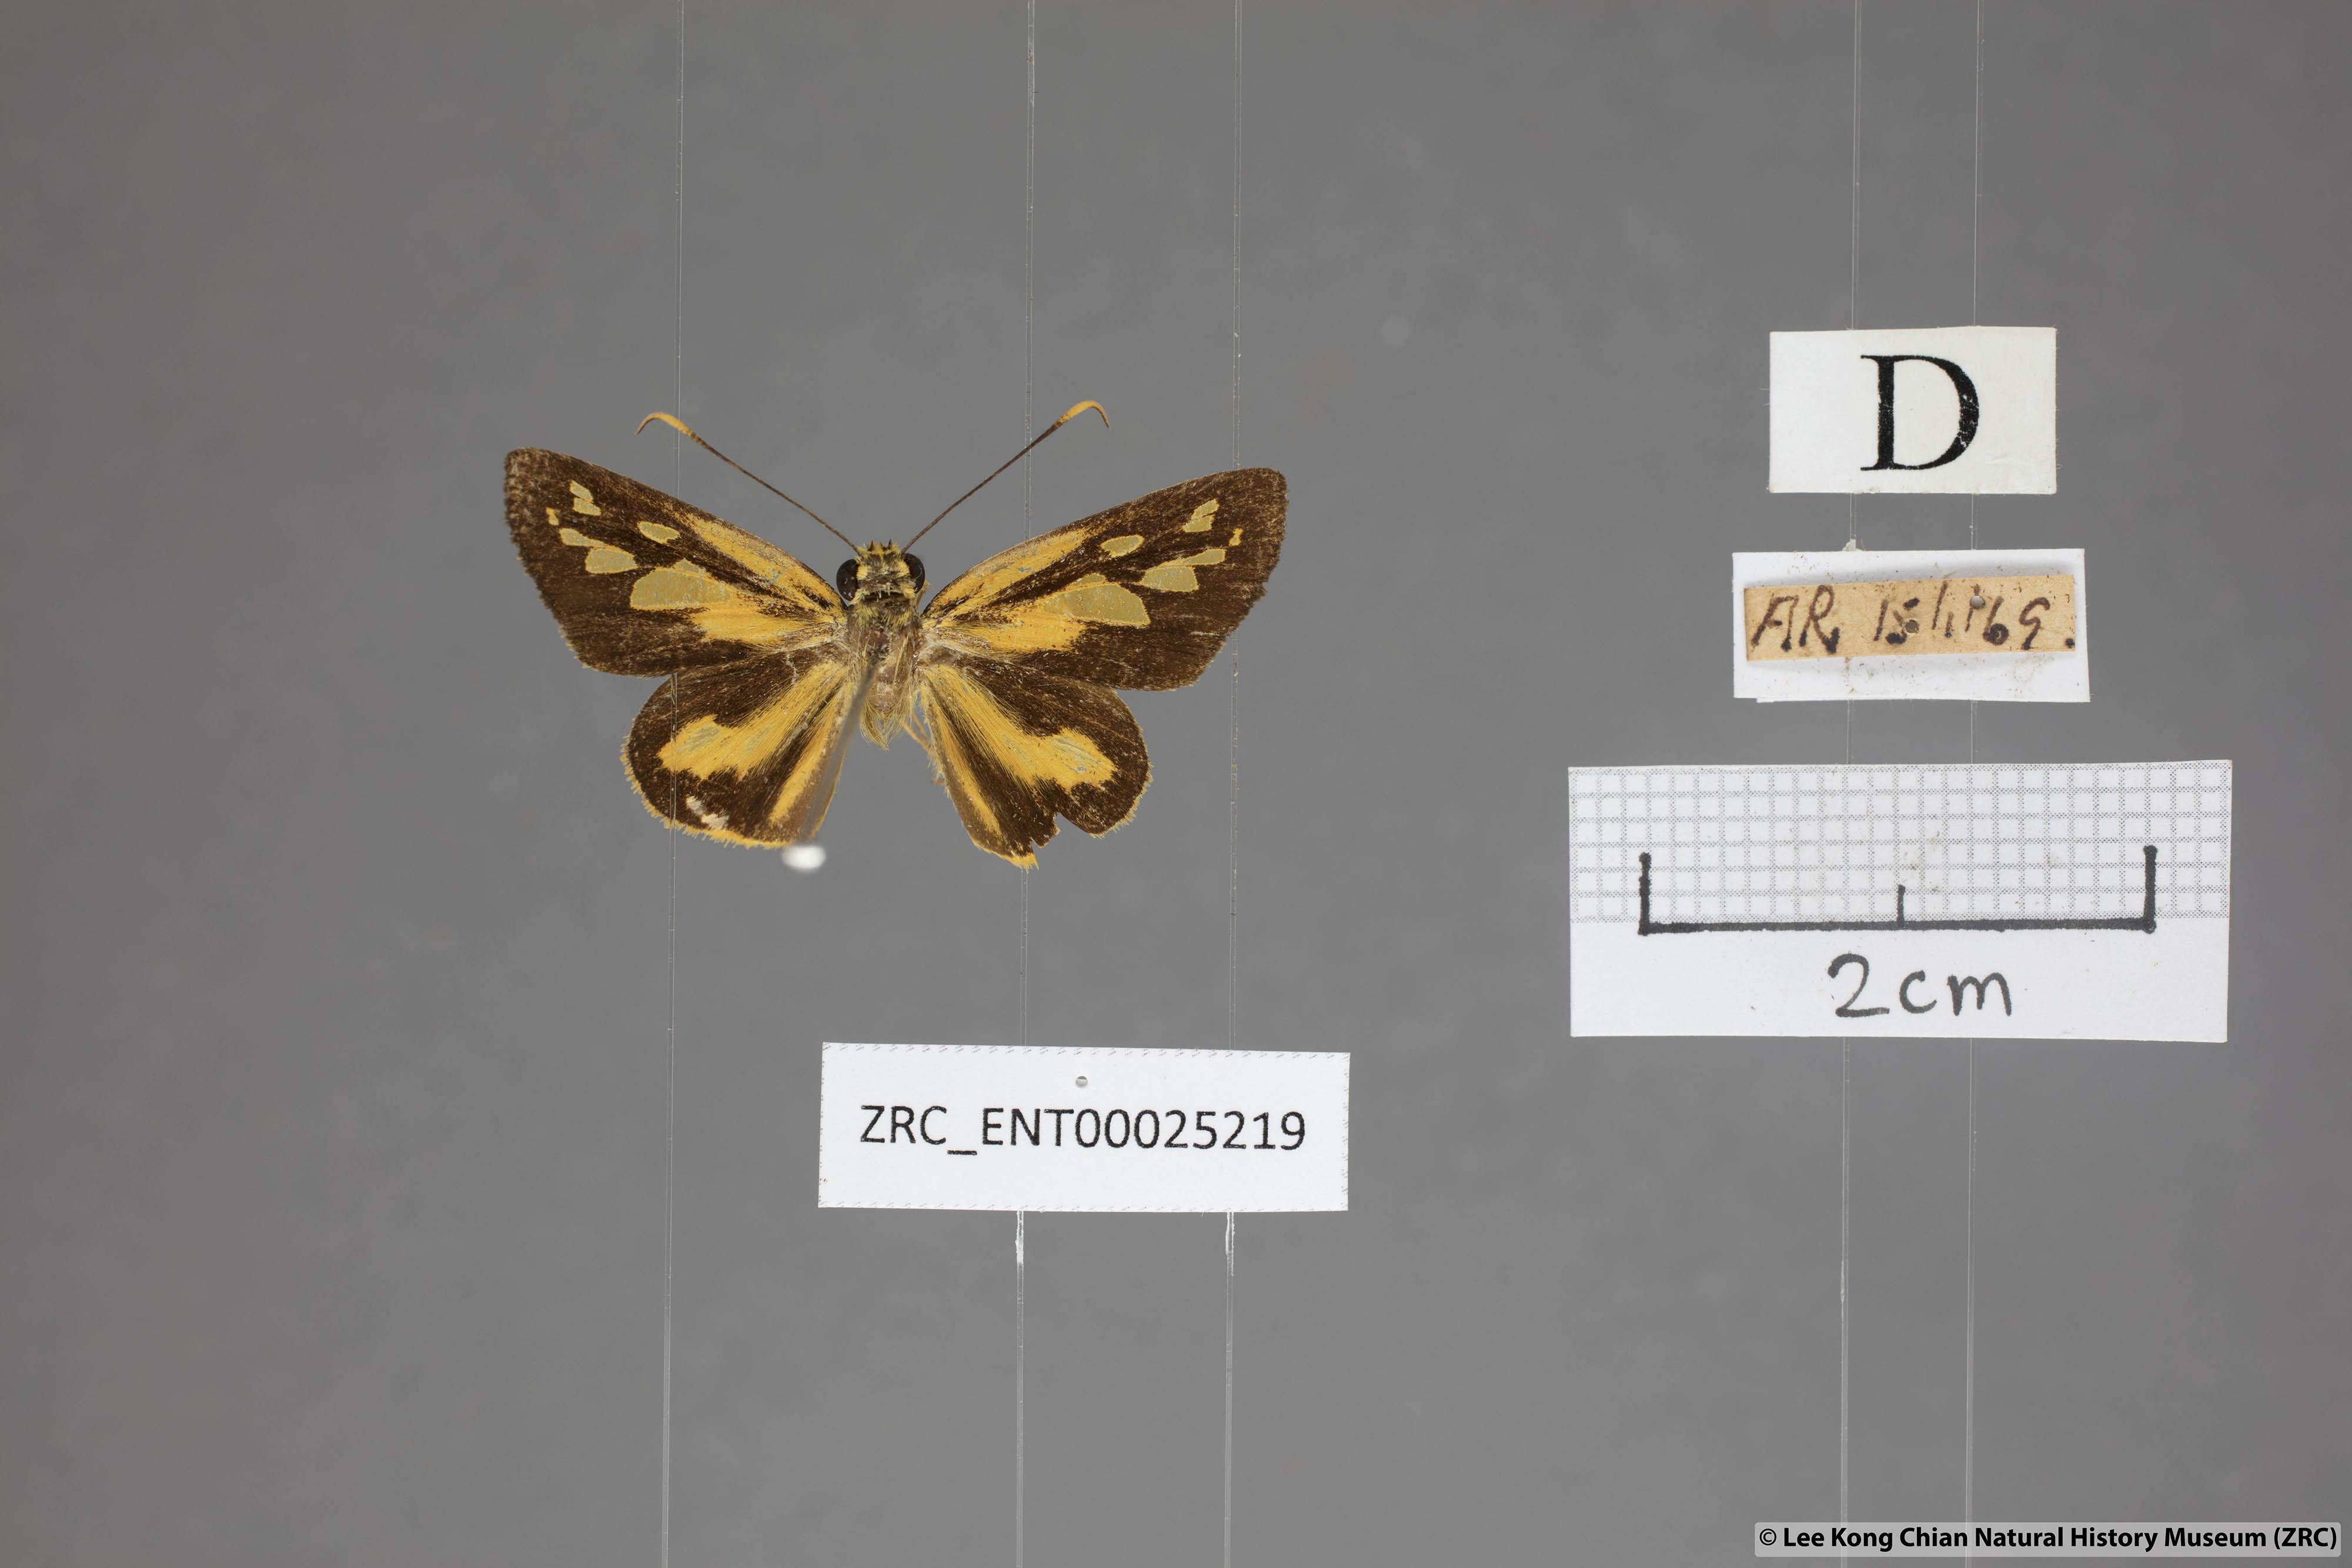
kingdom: Animalia
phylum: Arthropoda
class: Insecta
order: Lepidoptera
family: Hesperiidae
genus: Pyroneura
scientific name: Pyroneura flavia
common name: Lesser lancer
